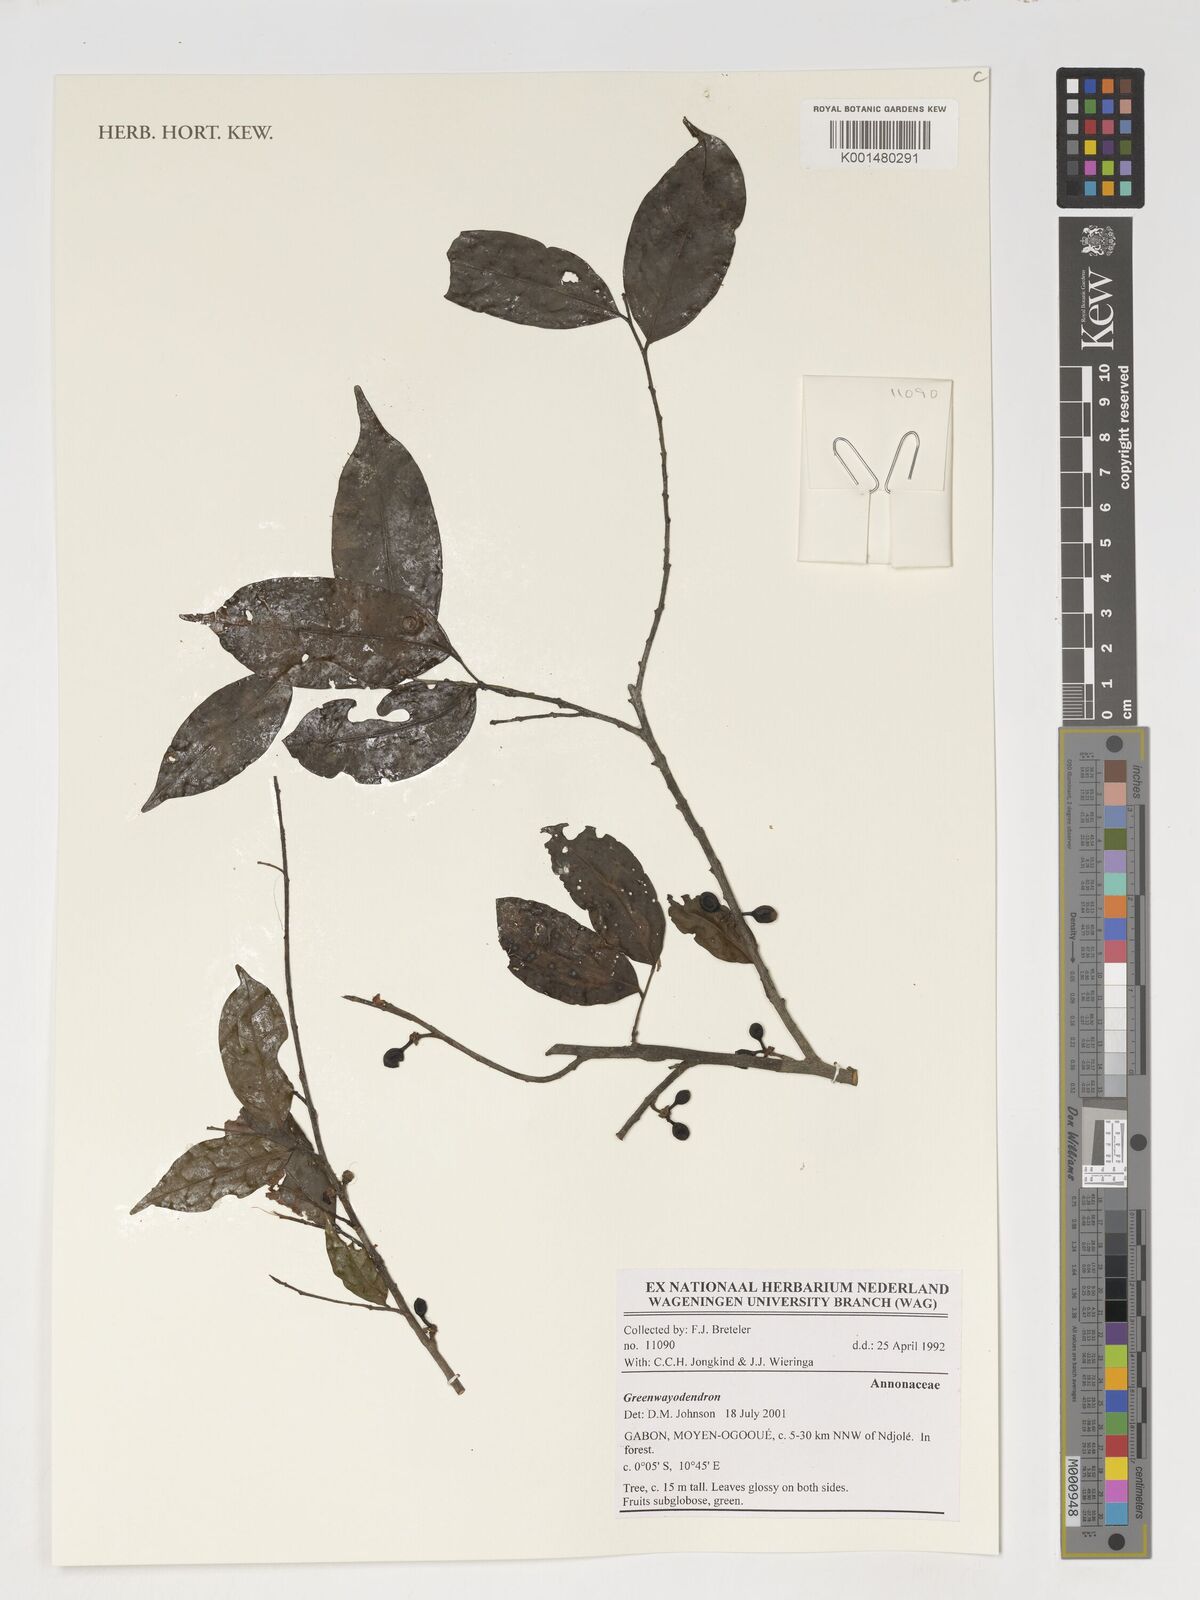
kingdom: Plantae
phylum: Tracheophyta
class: Magnoliopsida
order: Magnoliales
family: Annonaceae
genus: Greenwayodendron
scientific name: Greenwayodendron
